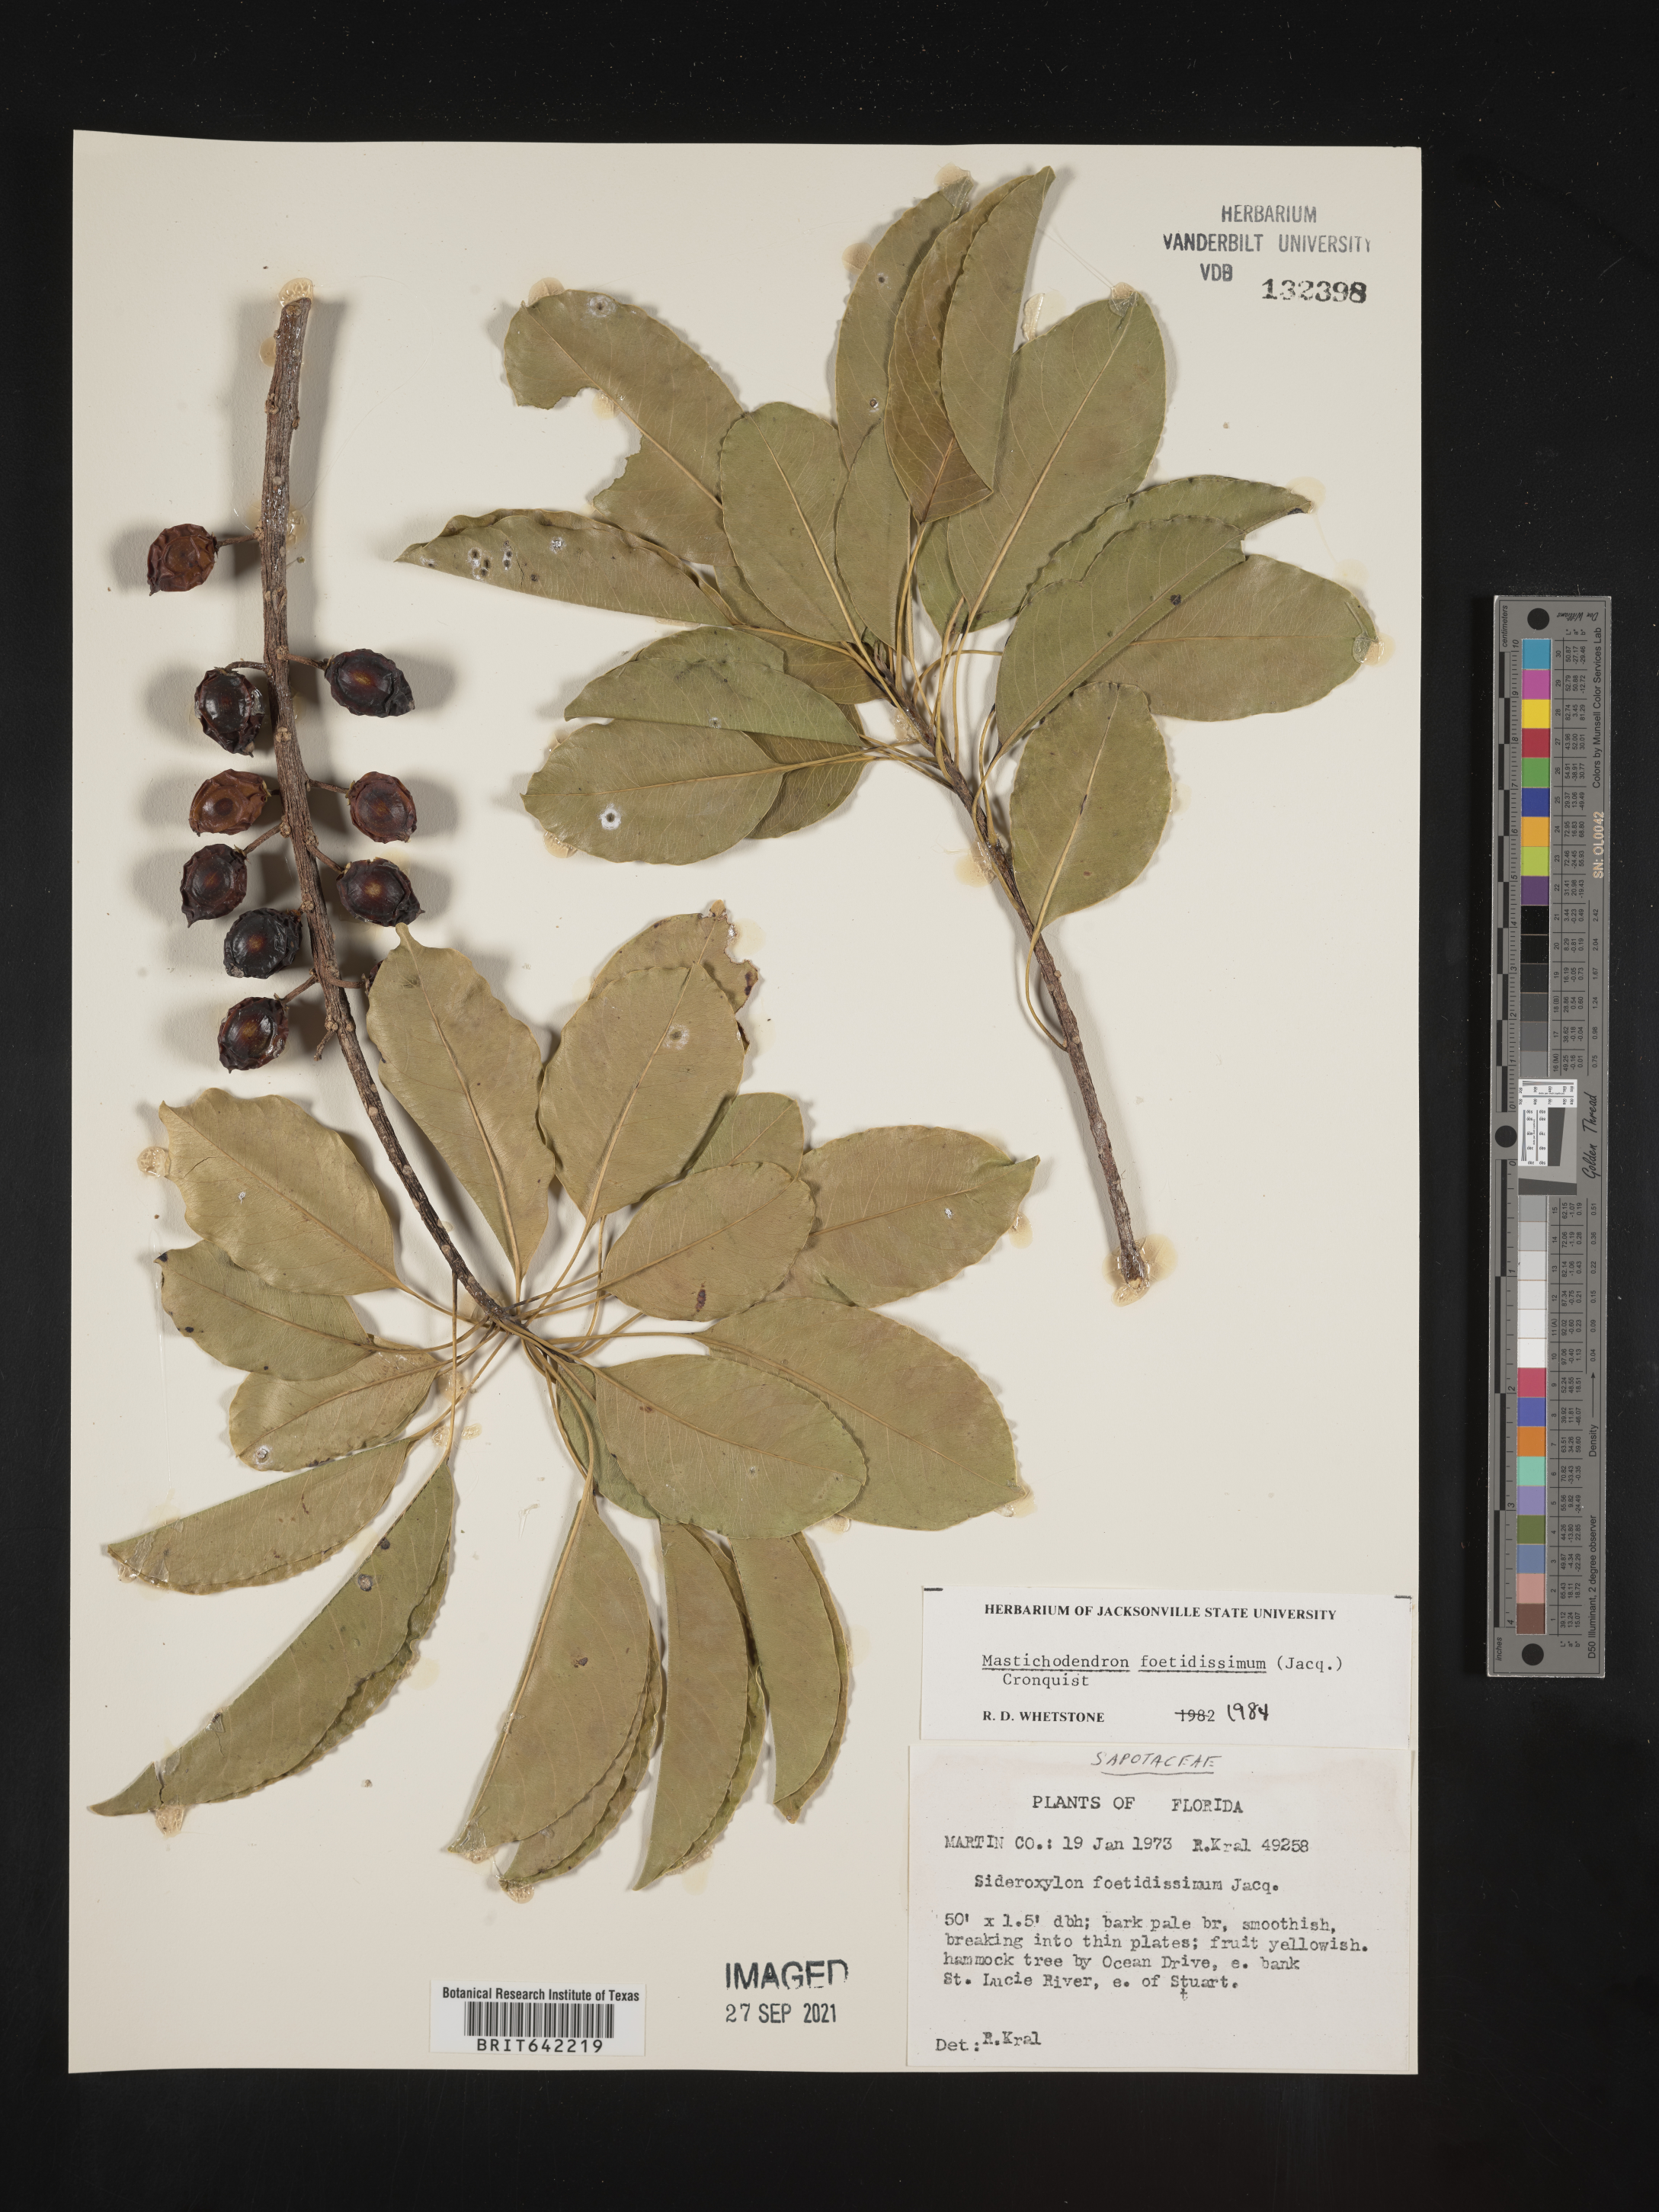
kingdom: Plantae
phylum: Tracheophyta
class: Magnoliopsida
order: Ericales
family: Sapotaceae
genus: Sideroxylon
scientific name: Sideroxylon foetidissimum
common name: Barbados-mastic
